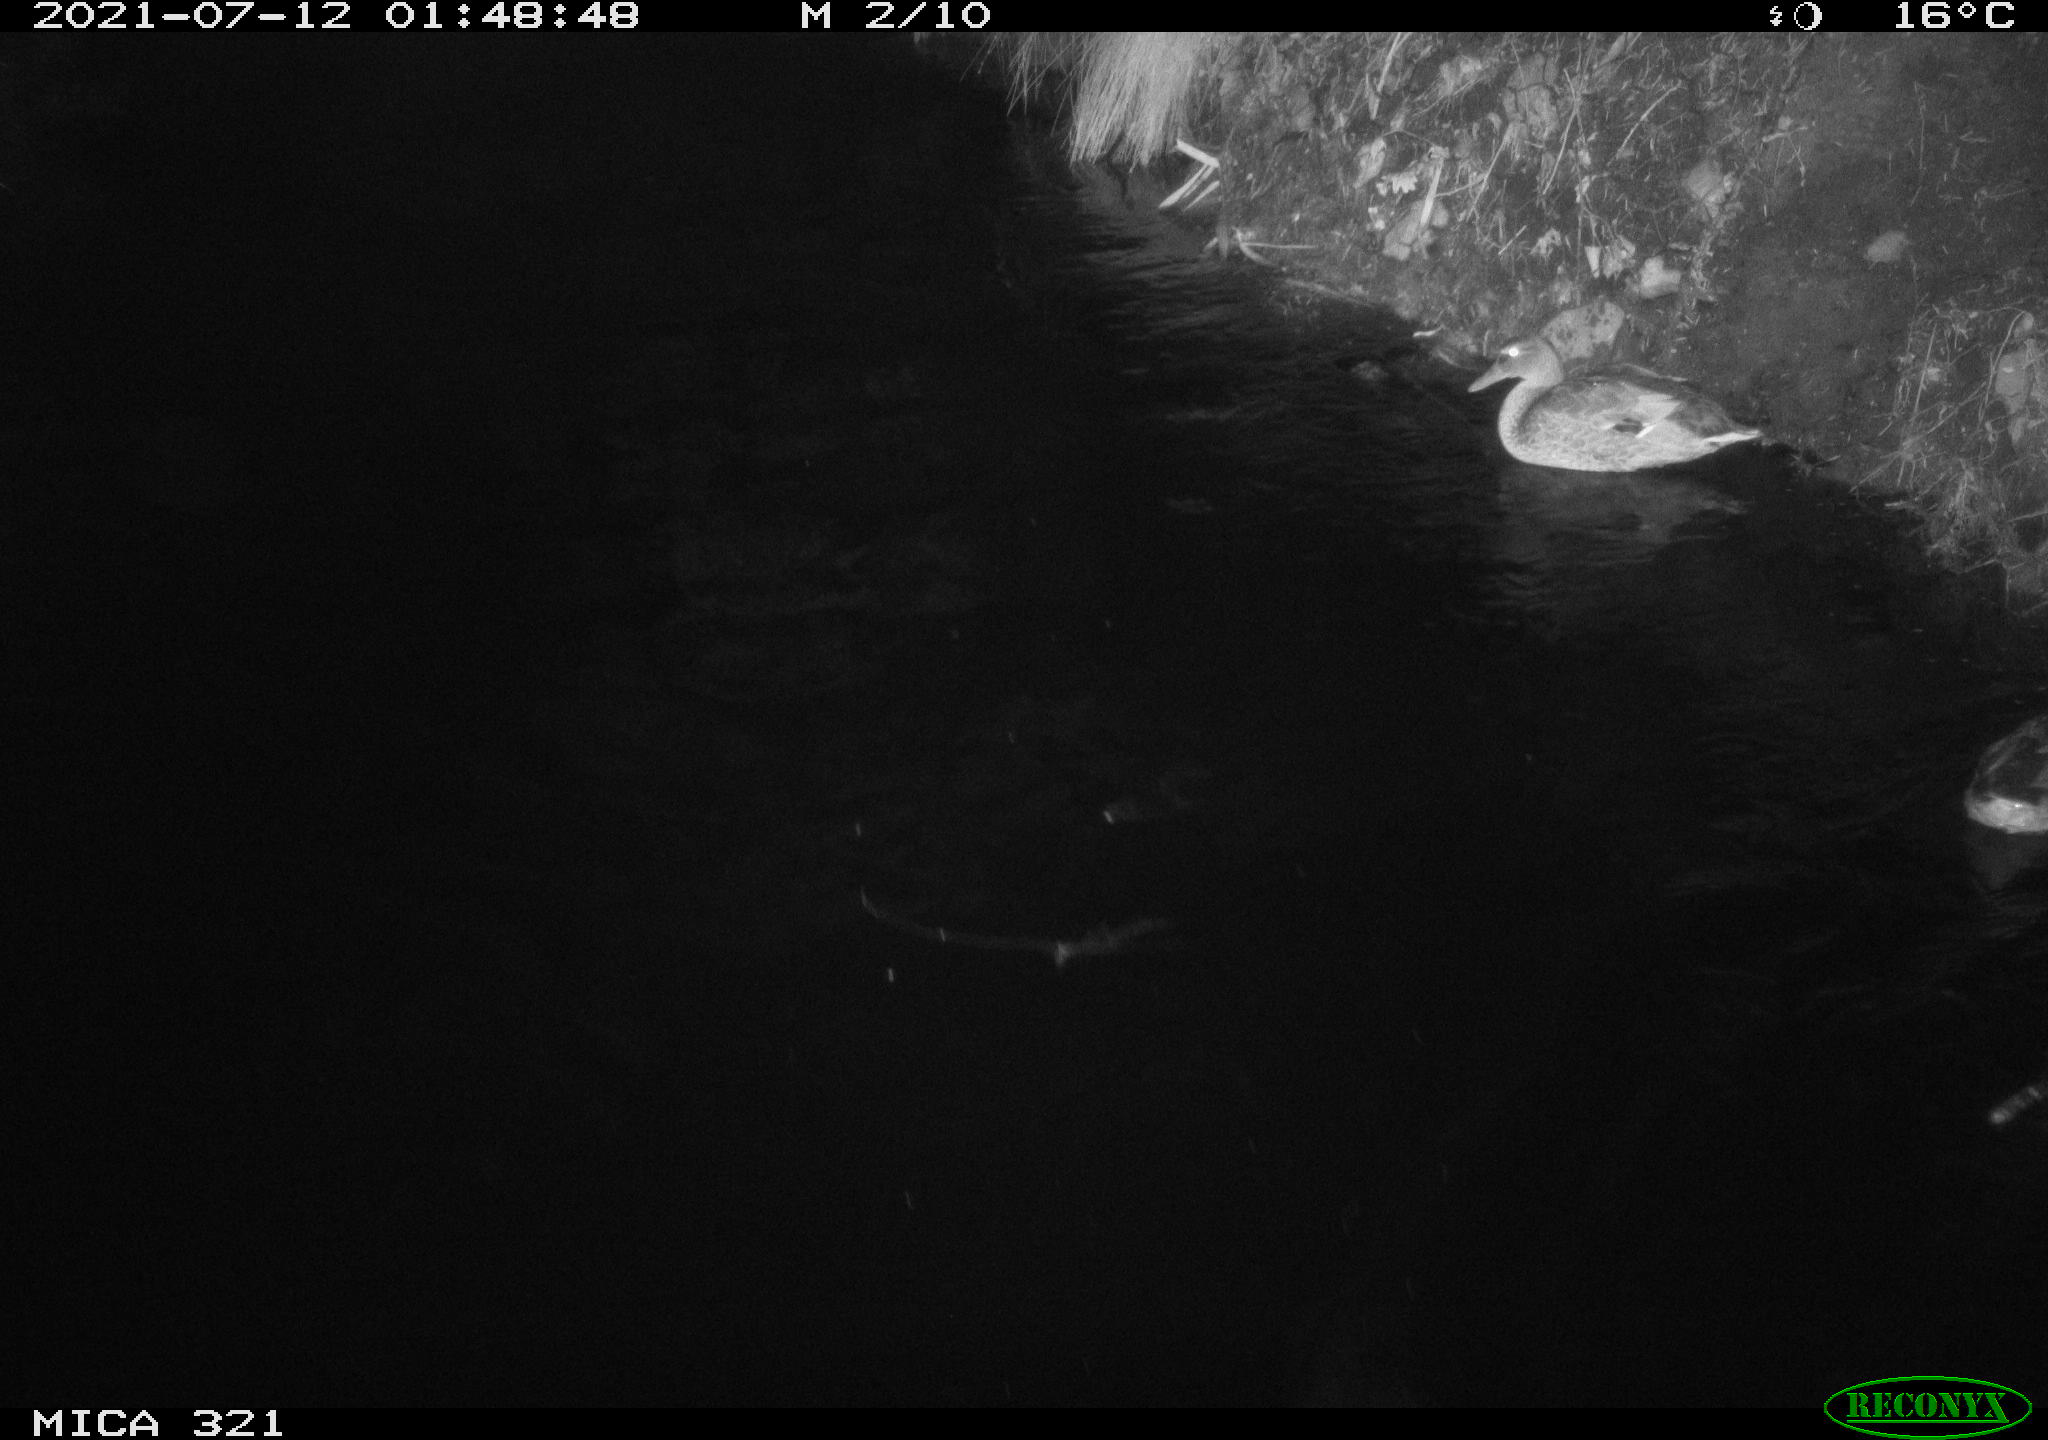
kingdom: Animalia
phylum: Chordata
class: Aves
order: Anseriformes
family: Anatidae
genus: Anas
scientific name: Anas platyrhynchos
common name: Mallard
